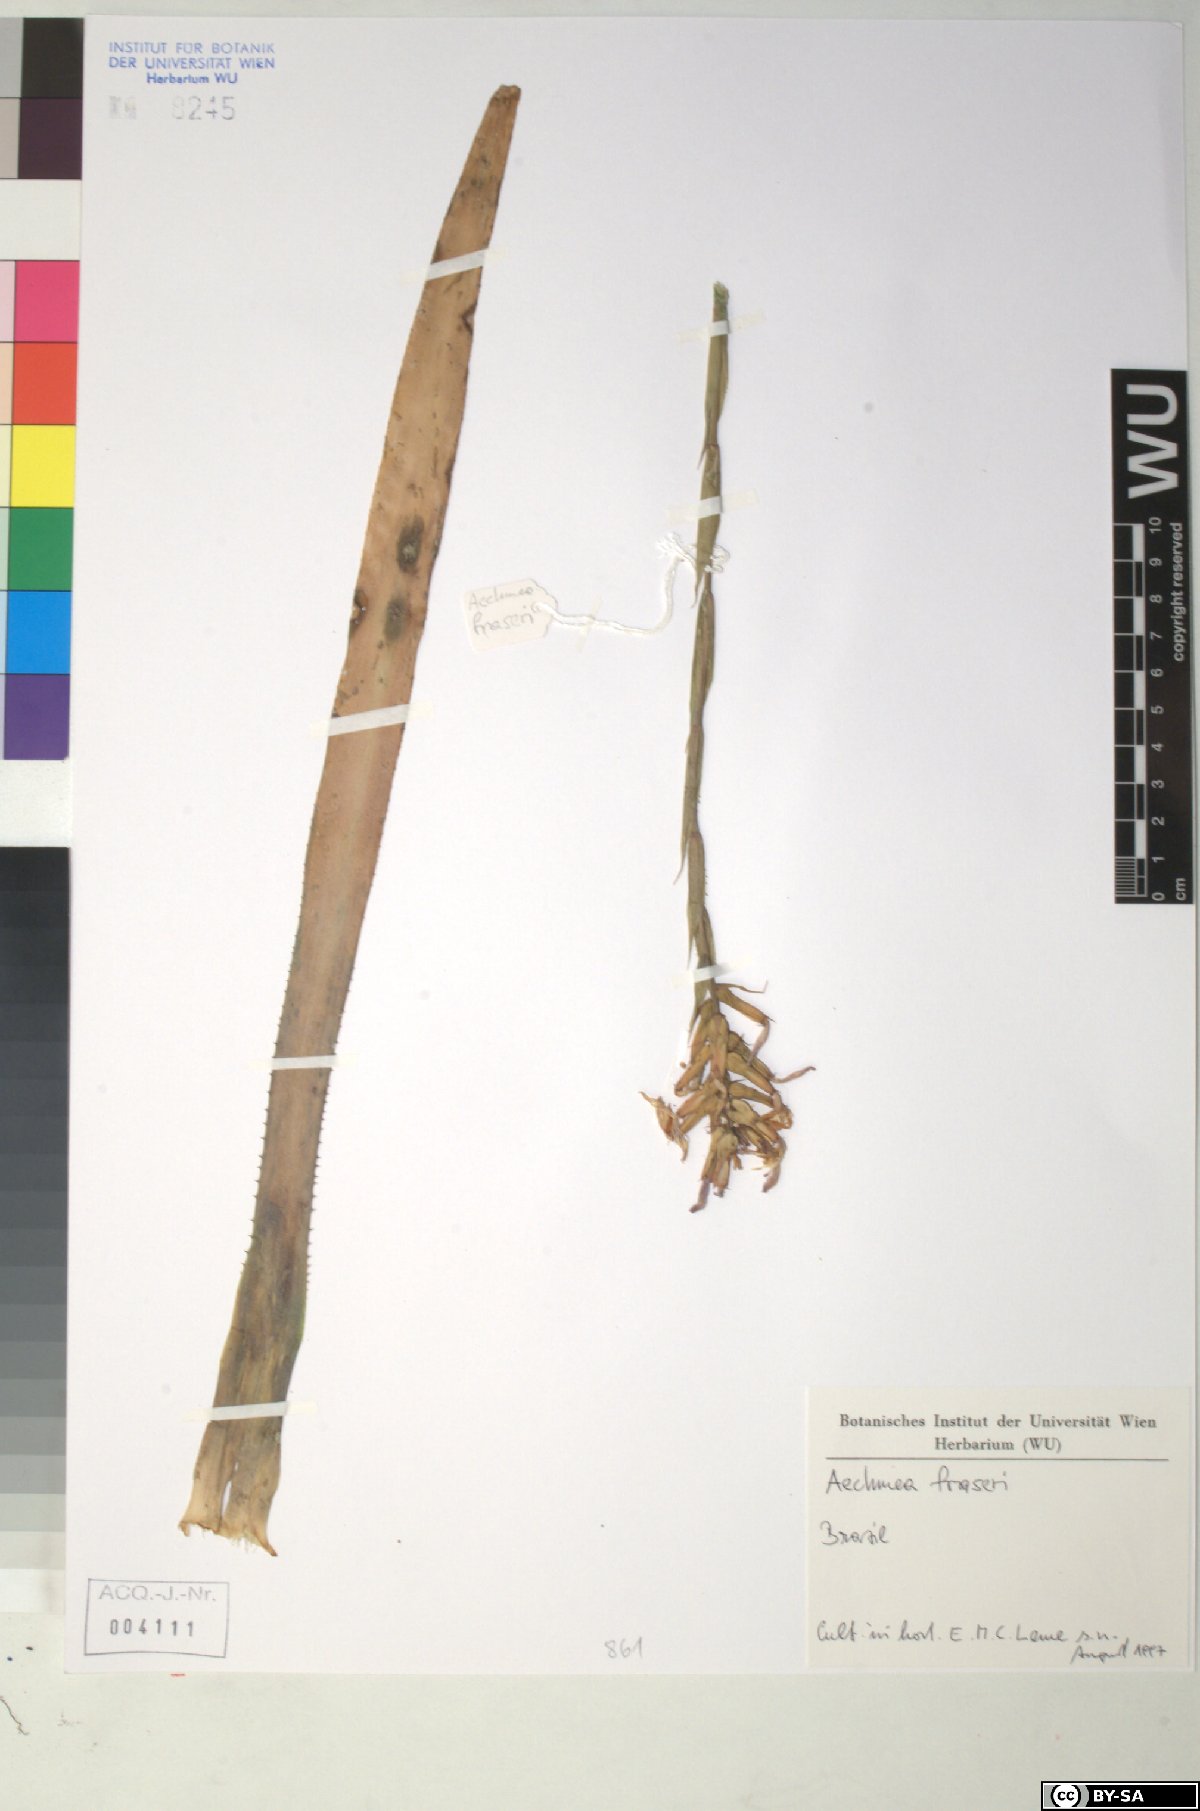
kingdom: Plantae
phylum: Tracheophyta
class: Liliopsida
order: Poales
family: Bromeliaceae
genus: Aechmea
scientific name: Aechmea
